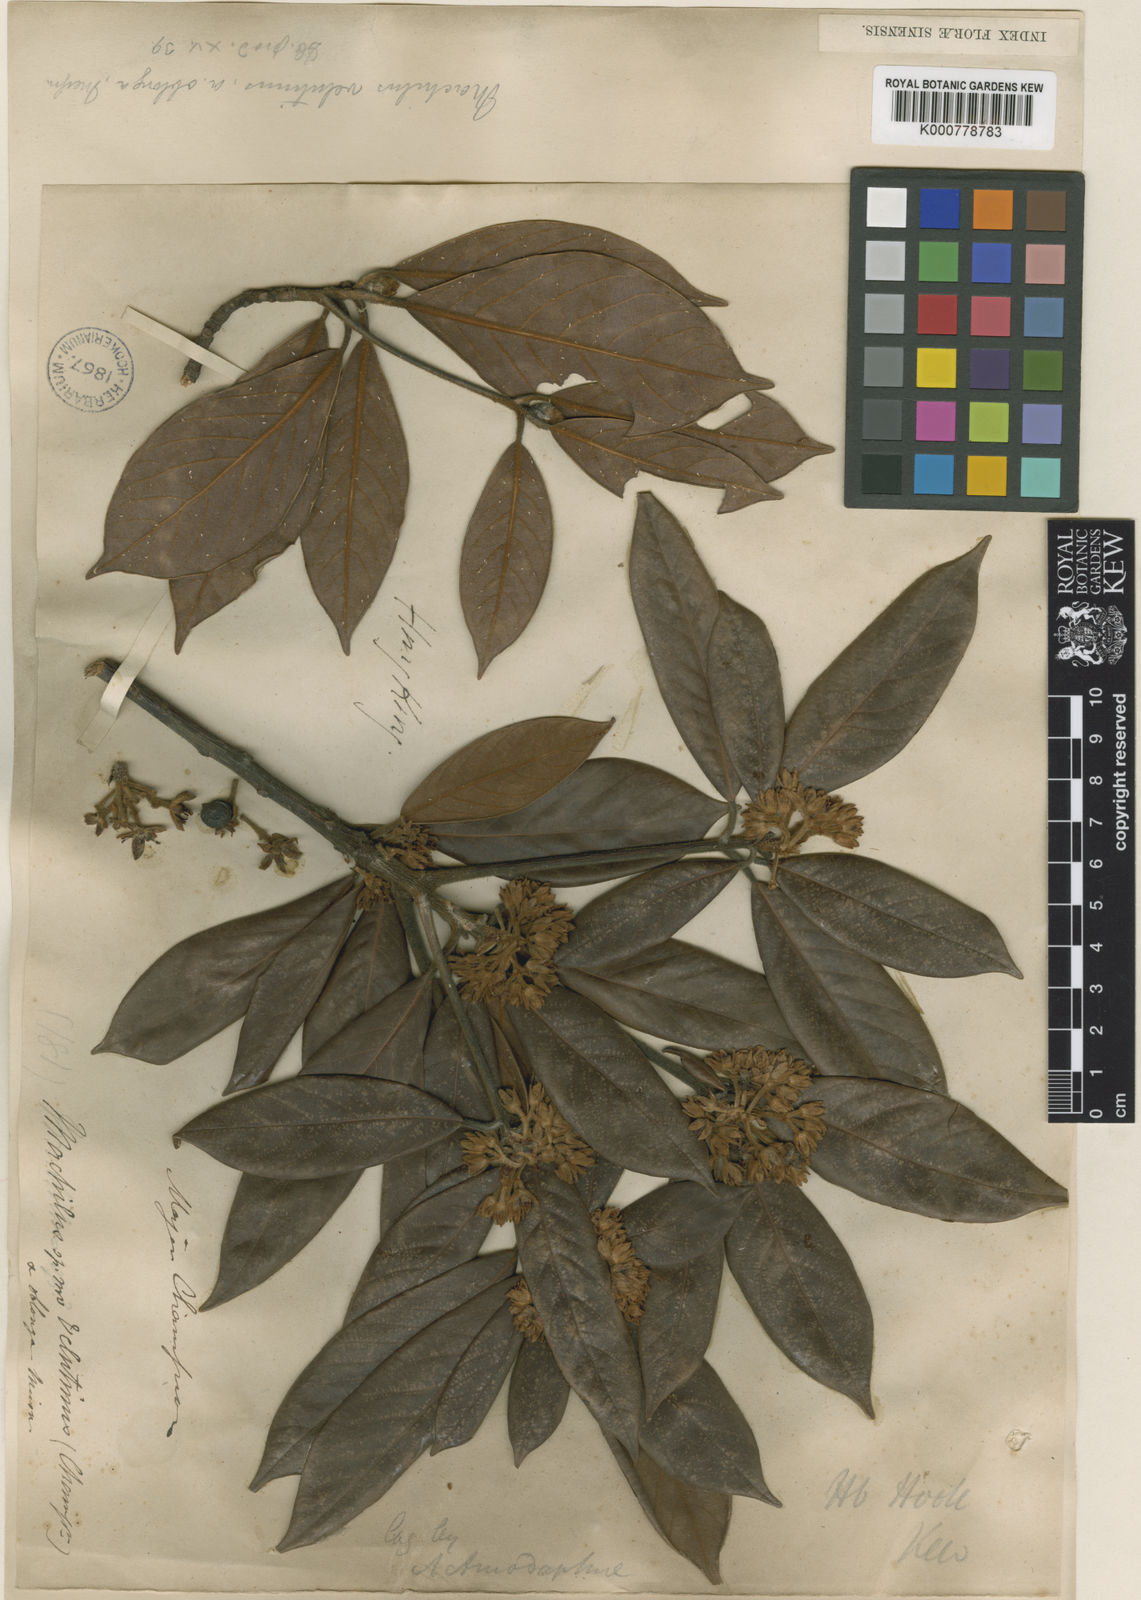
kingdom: Plantae
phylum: Tracheophyta
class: Magnoliopsida
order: Laurales
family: Lauraceae
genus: Actinodaphne
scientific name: Actinodaphne pedunculata
